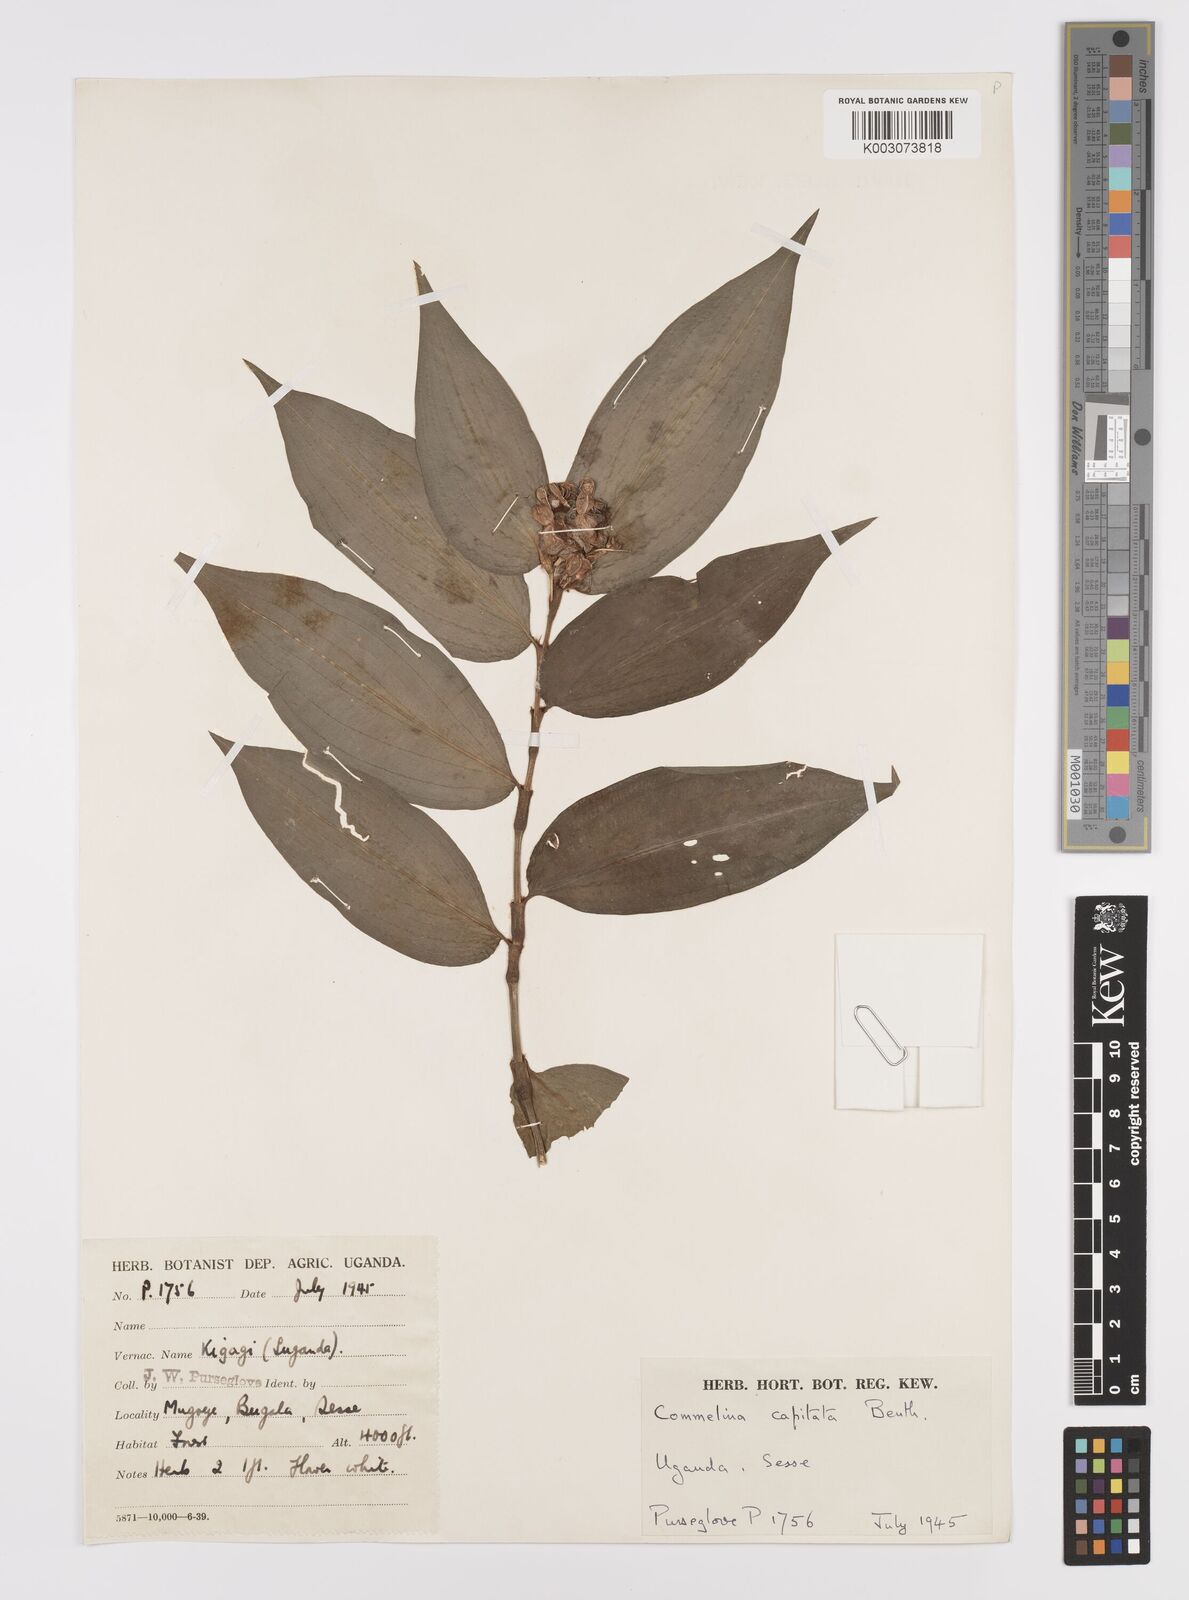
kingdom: Plantae
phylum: Tracheophyta
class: Liliopsida
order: Commelinales
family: Commelinaceae
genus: Commelina
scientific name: Commelina capitata
